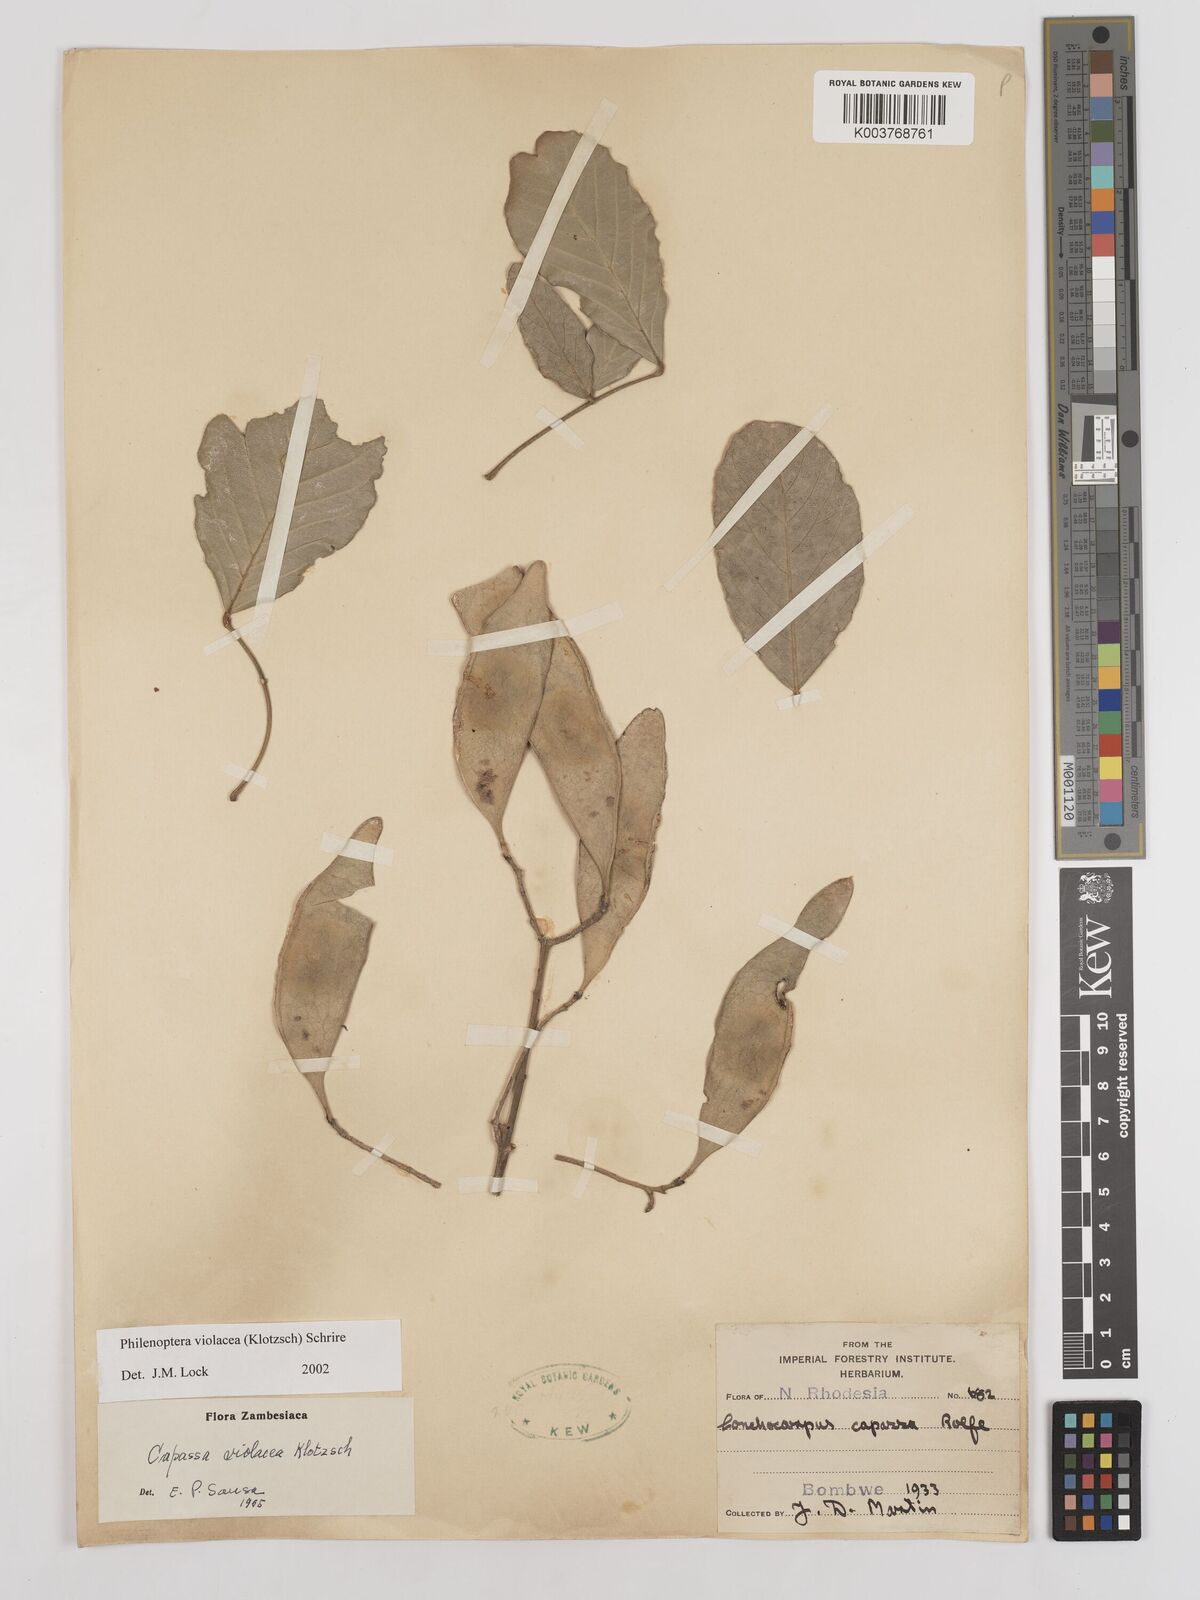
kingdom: Plantae
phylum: Tracheophyta
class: Magnoliopsida
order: Fabales
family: Fabaceae
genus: Philenoptera
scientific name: Philenoptera violacea
